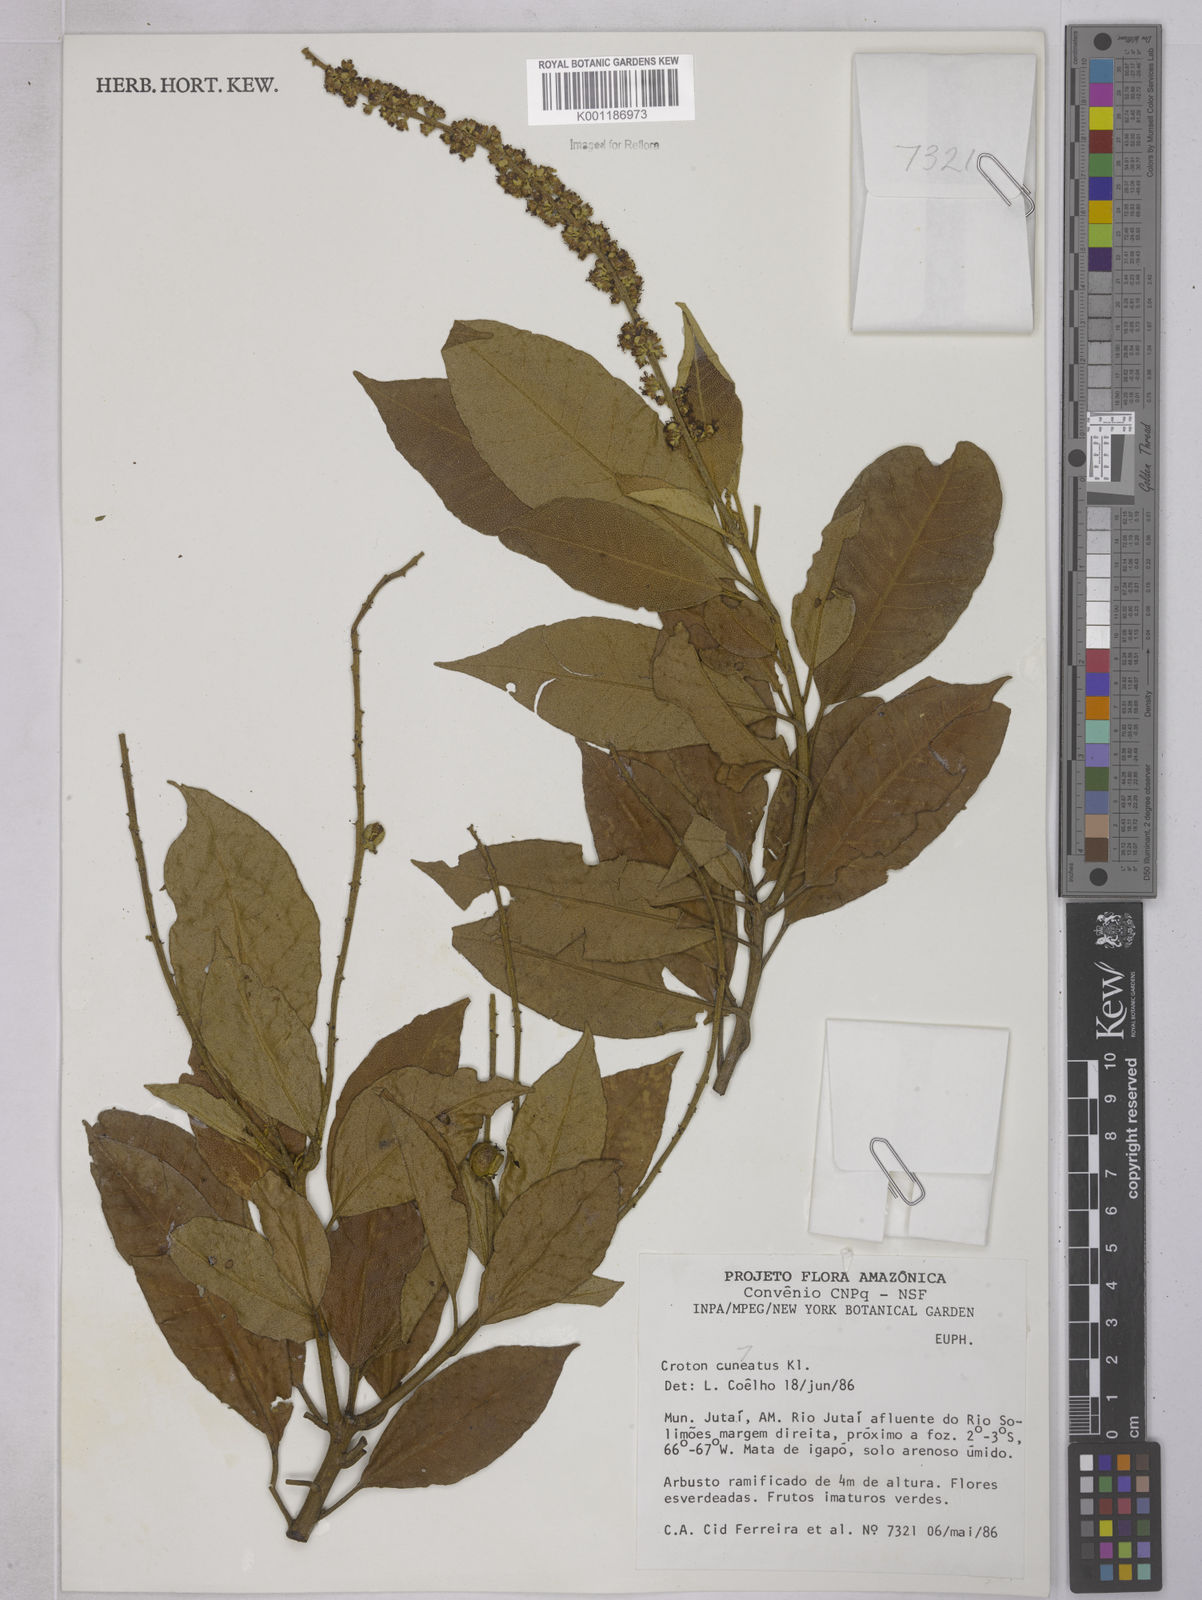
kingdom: Plantae
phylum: Tracheophyta
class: Magnoliopsida
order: Malpighiales
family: Euphorbiaceae
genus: Croton
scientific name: Croton
